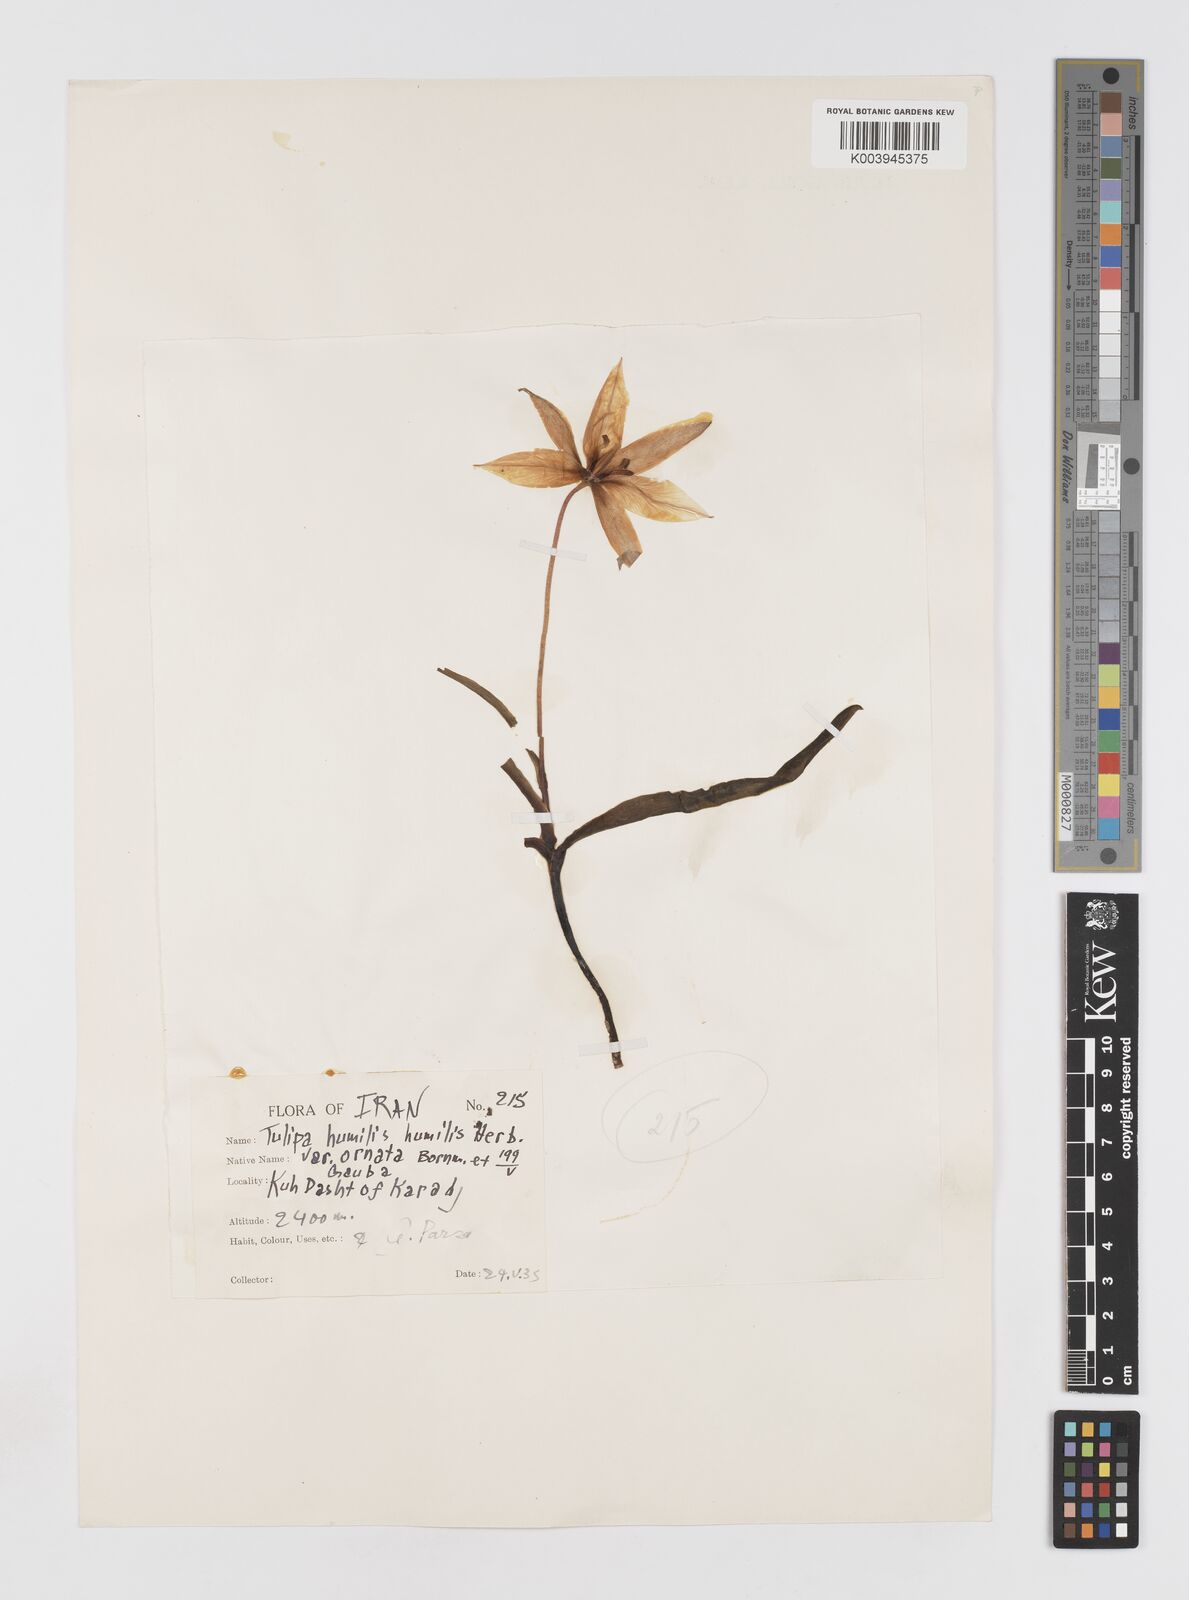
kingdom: Plantae
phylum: Tracheophyta
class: Liliopsida
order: Liliales
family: Liliaceae
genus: Tulipa
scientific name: Tulipa humilis
